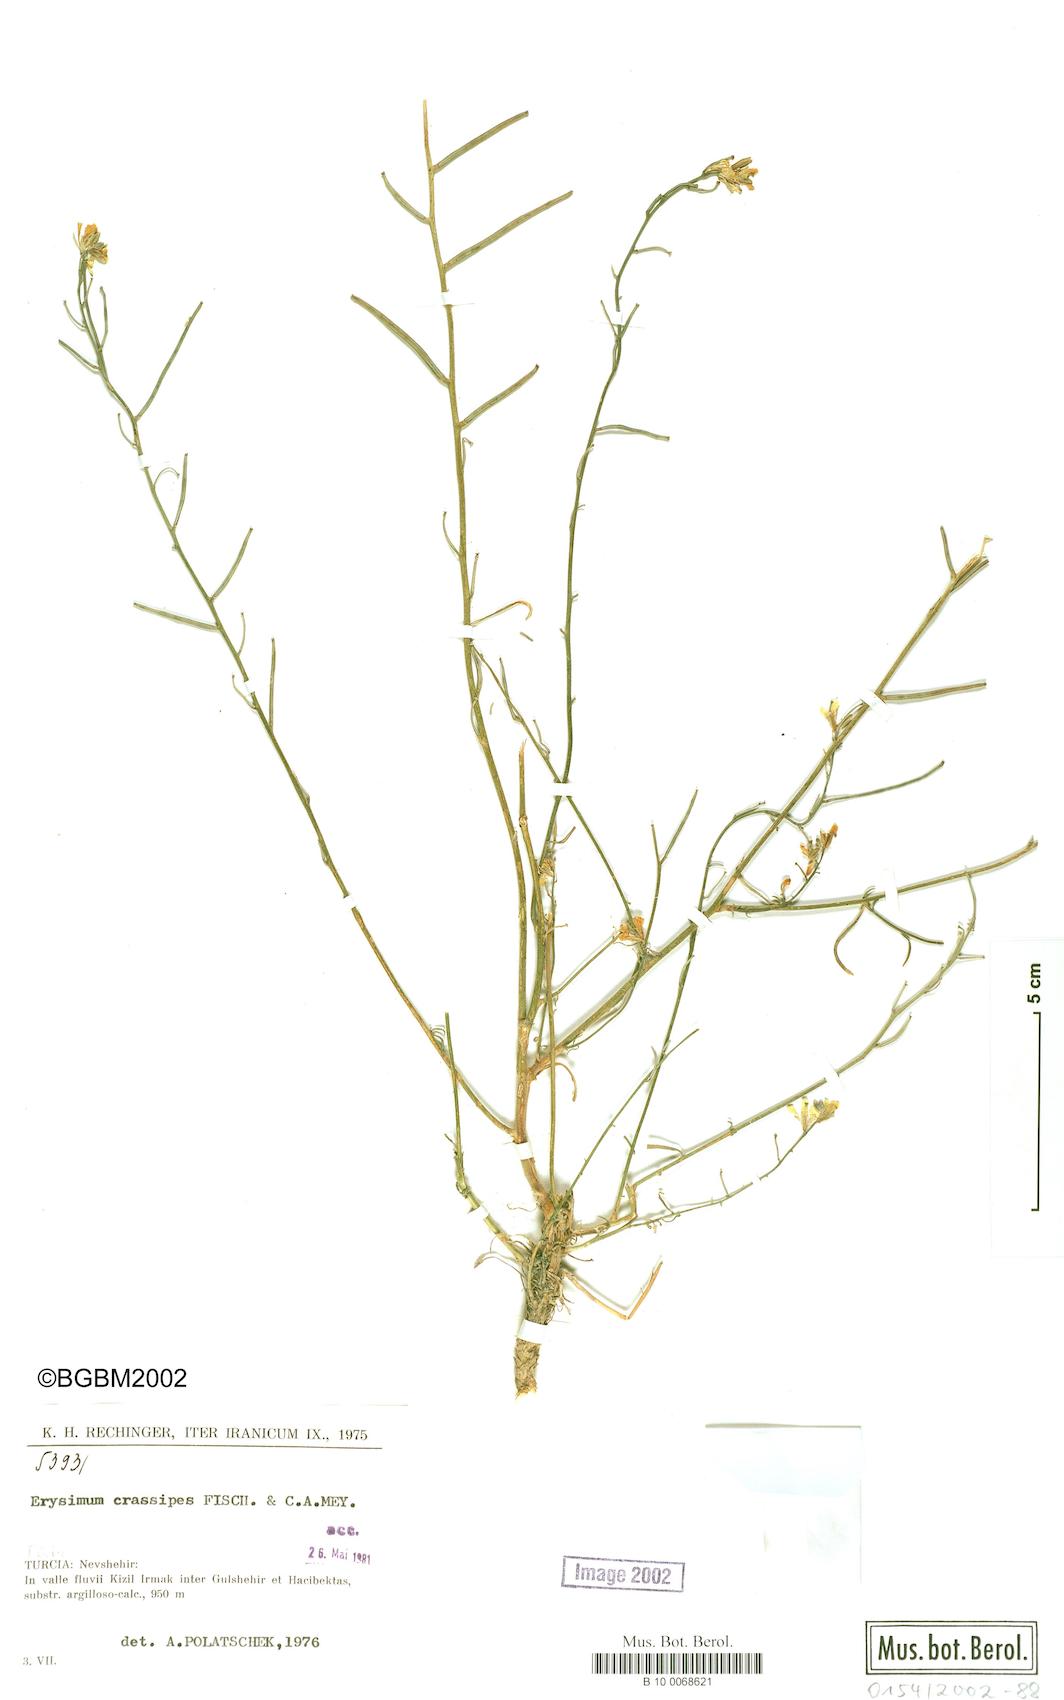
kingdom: Plantae
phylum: Tracheophyta
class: Magnoliopsida
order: Brassicales
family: Brassicaceae
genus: Erysimum
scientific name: Erysimum crassipes
